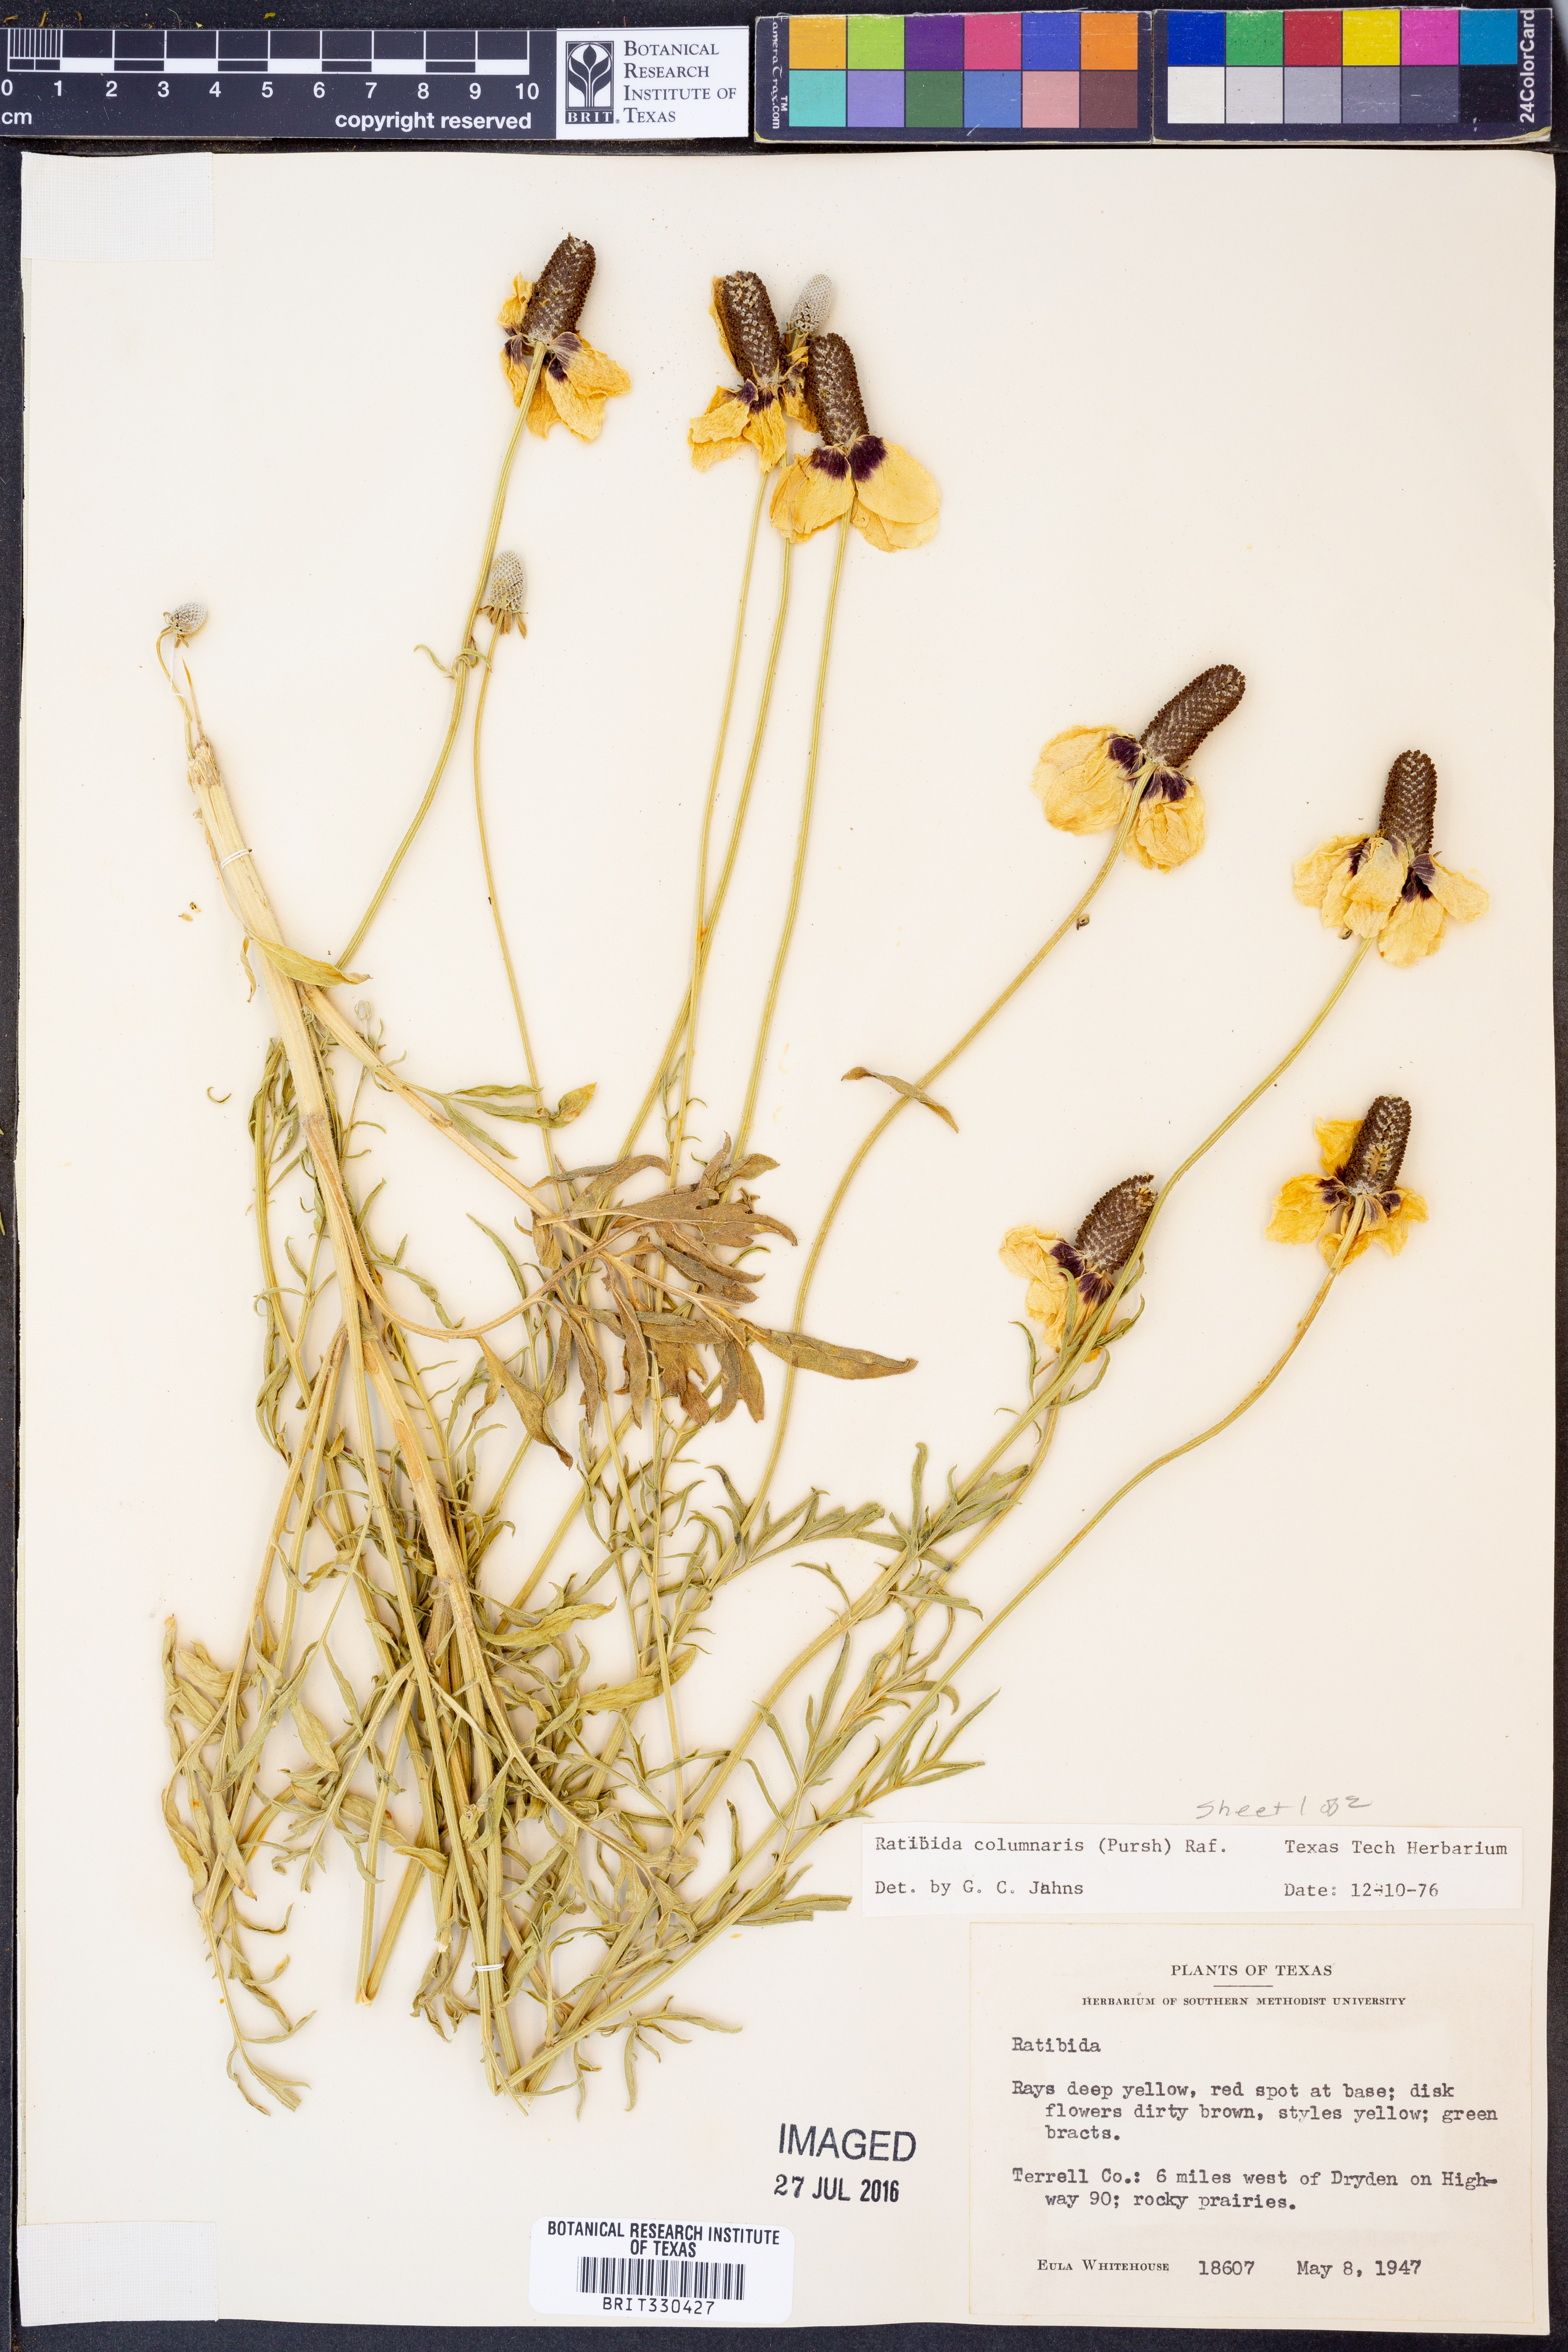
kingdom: Plantae
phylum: Tracheophyta
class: Magnoliopsida
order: Asterales
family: Asteraceae
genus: Ratibida
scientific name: Ratibida columnifera
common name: Prairie coneflower
